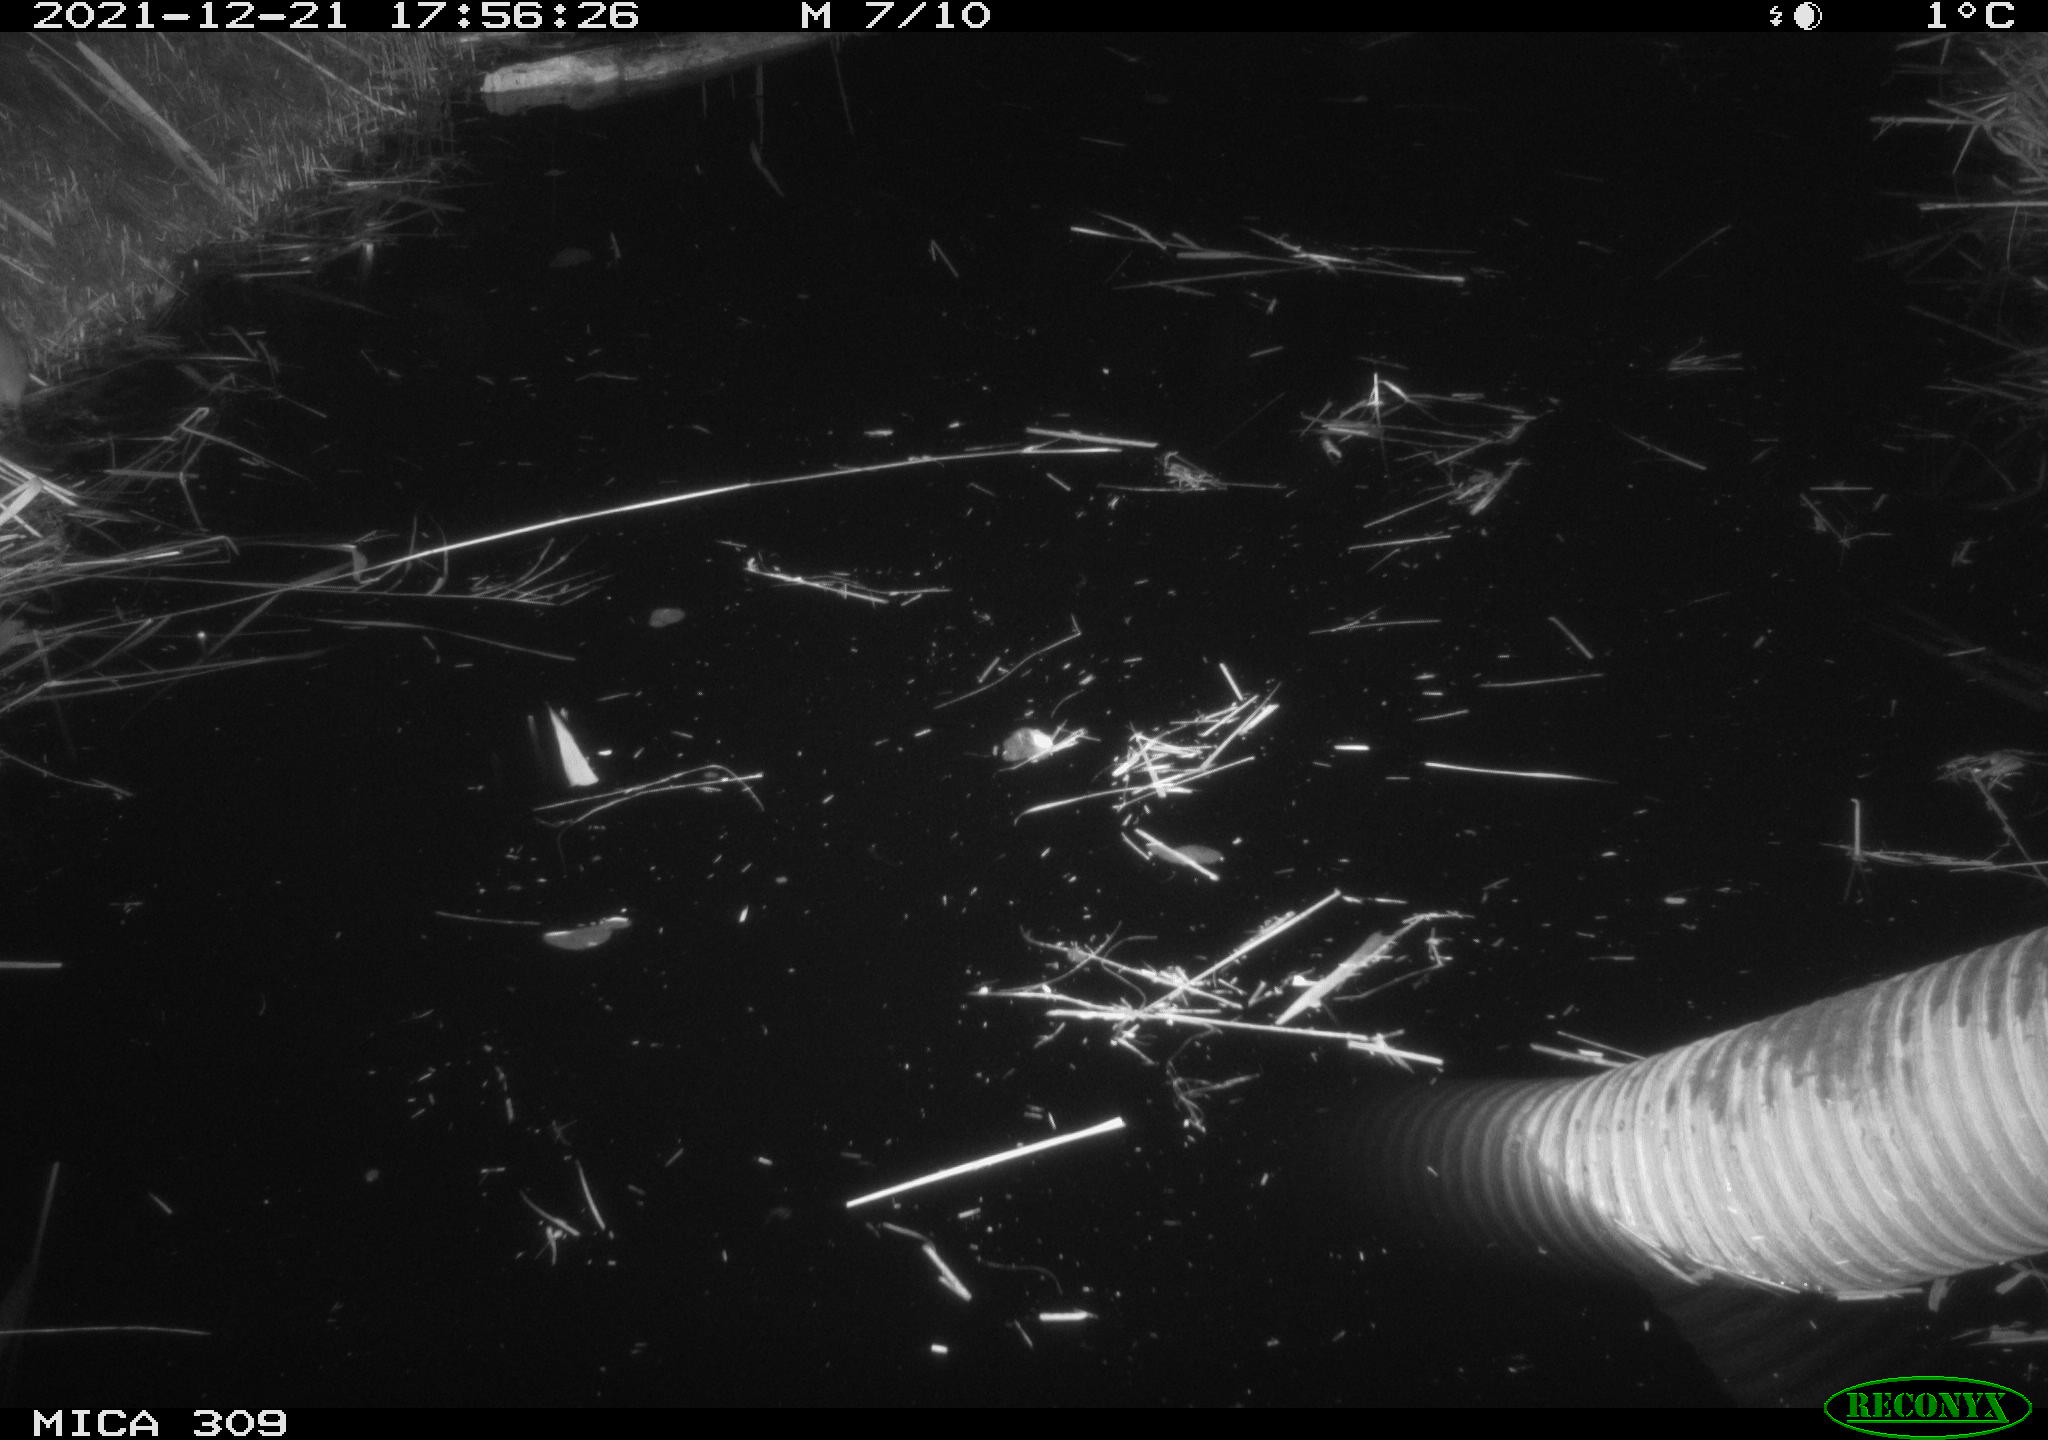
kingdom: Animalia
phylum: Chordata
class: Mammalia
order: Rodentia
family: Muridae
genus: Rattus
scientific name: Rattus norvegicus
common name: Brown rat
